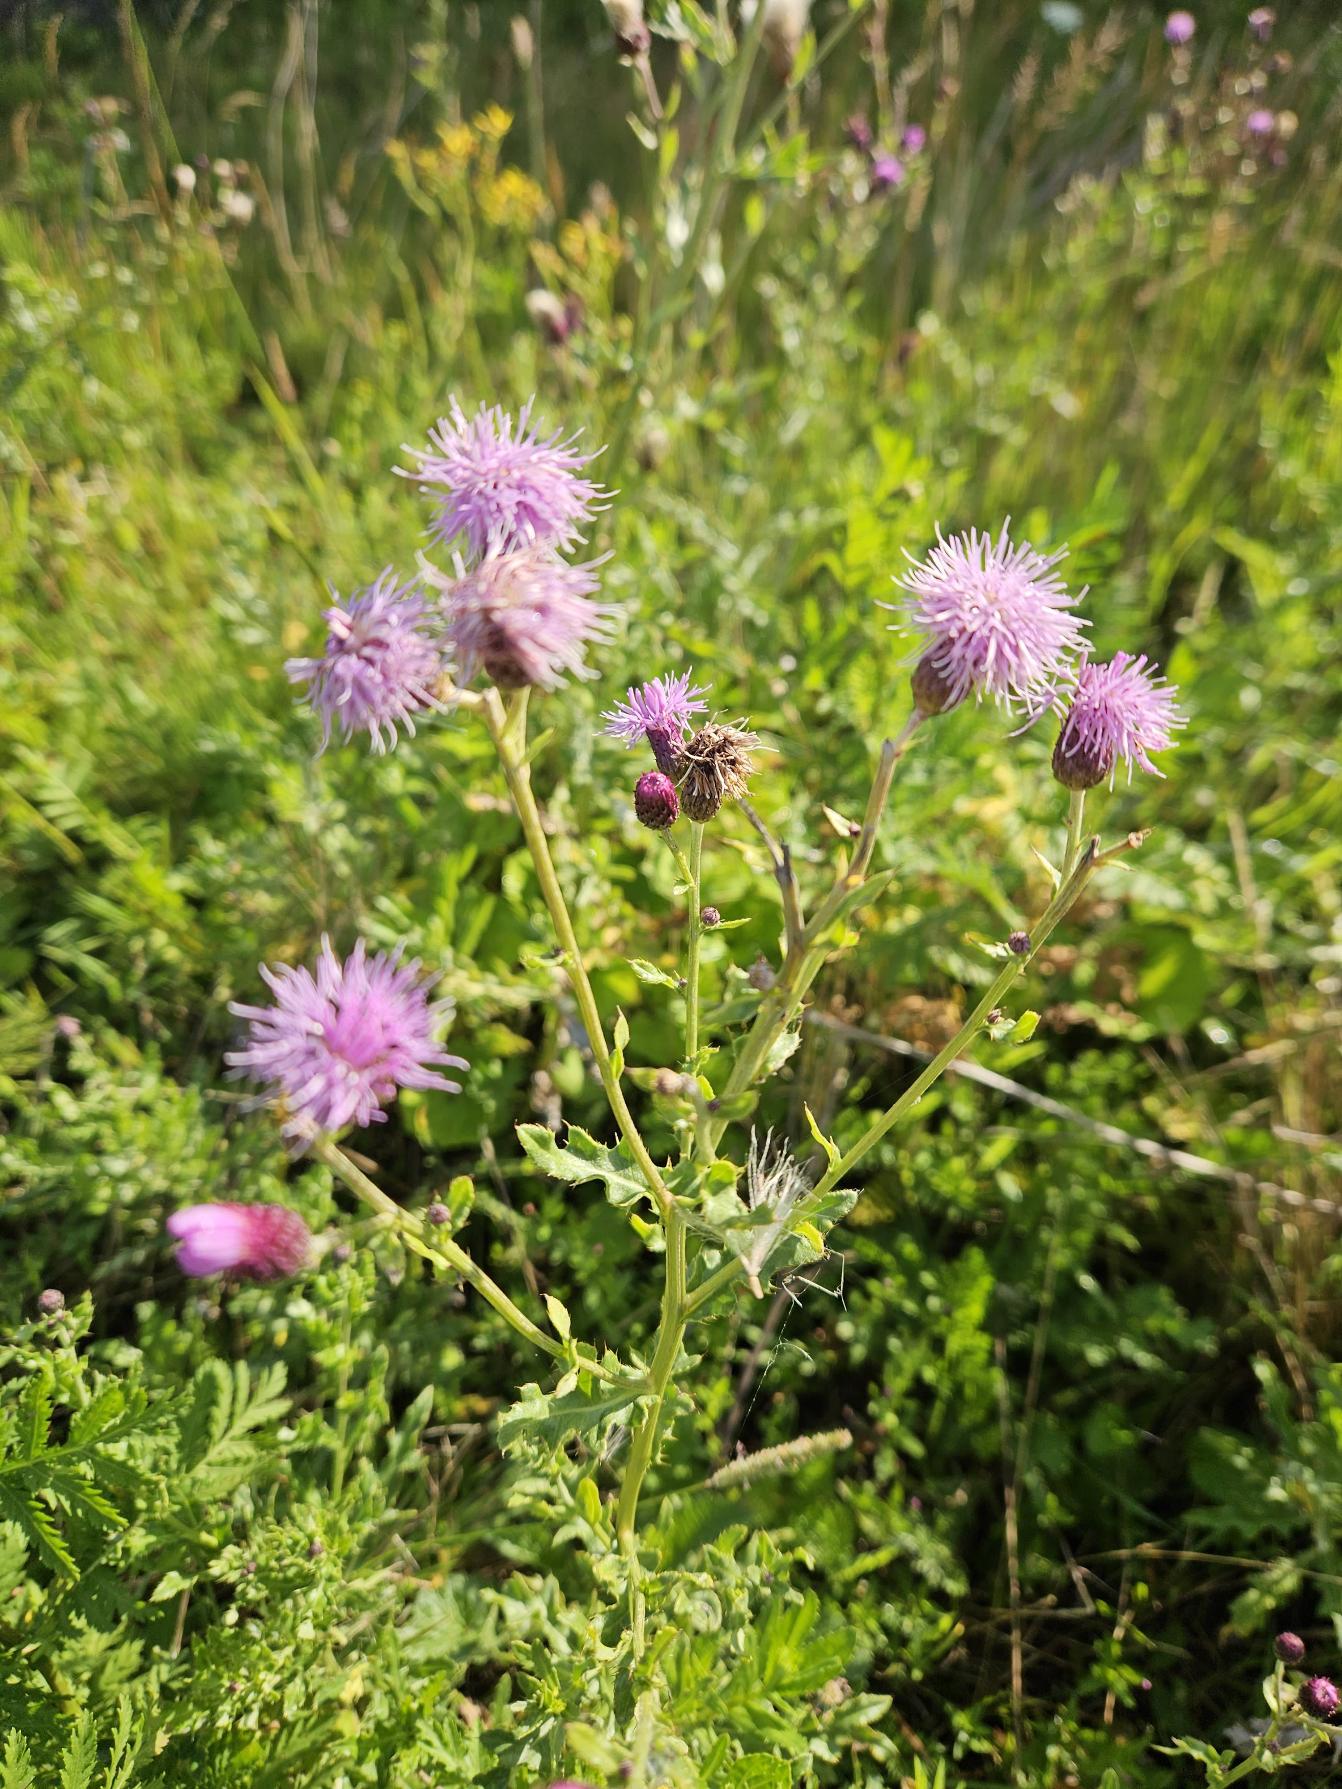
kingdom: Plantae
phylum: Tracheophyta
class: Magnoliopsida
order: Asterales
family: Asteraceae
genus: Cirsium
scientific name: Cirsium arvense
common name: Ager-tidsel
